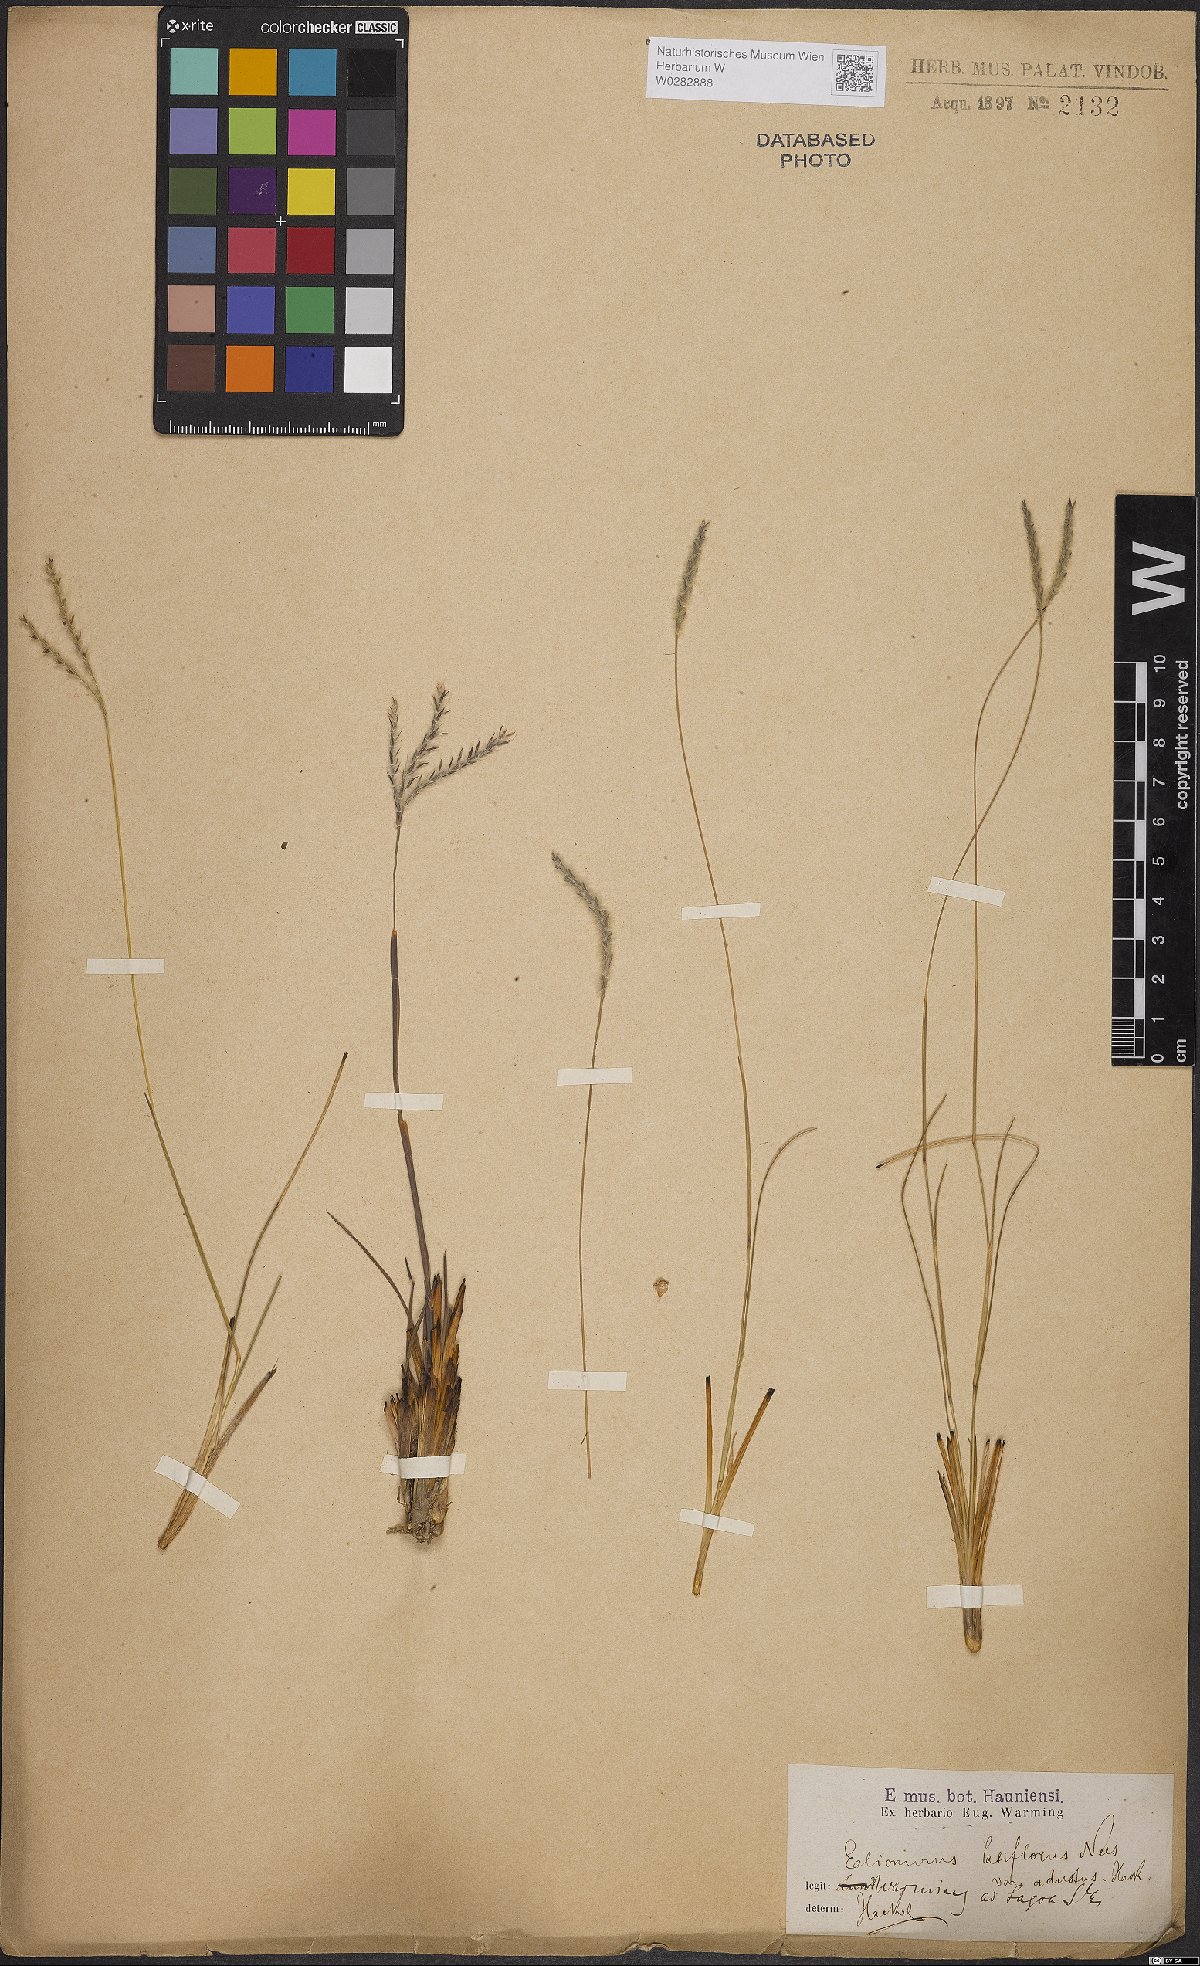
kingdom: Plantae
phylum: Tracheophyta
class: Liliopsida
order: Poales
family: Poaceae
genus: Elionurus
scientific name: Elionurus muticus
